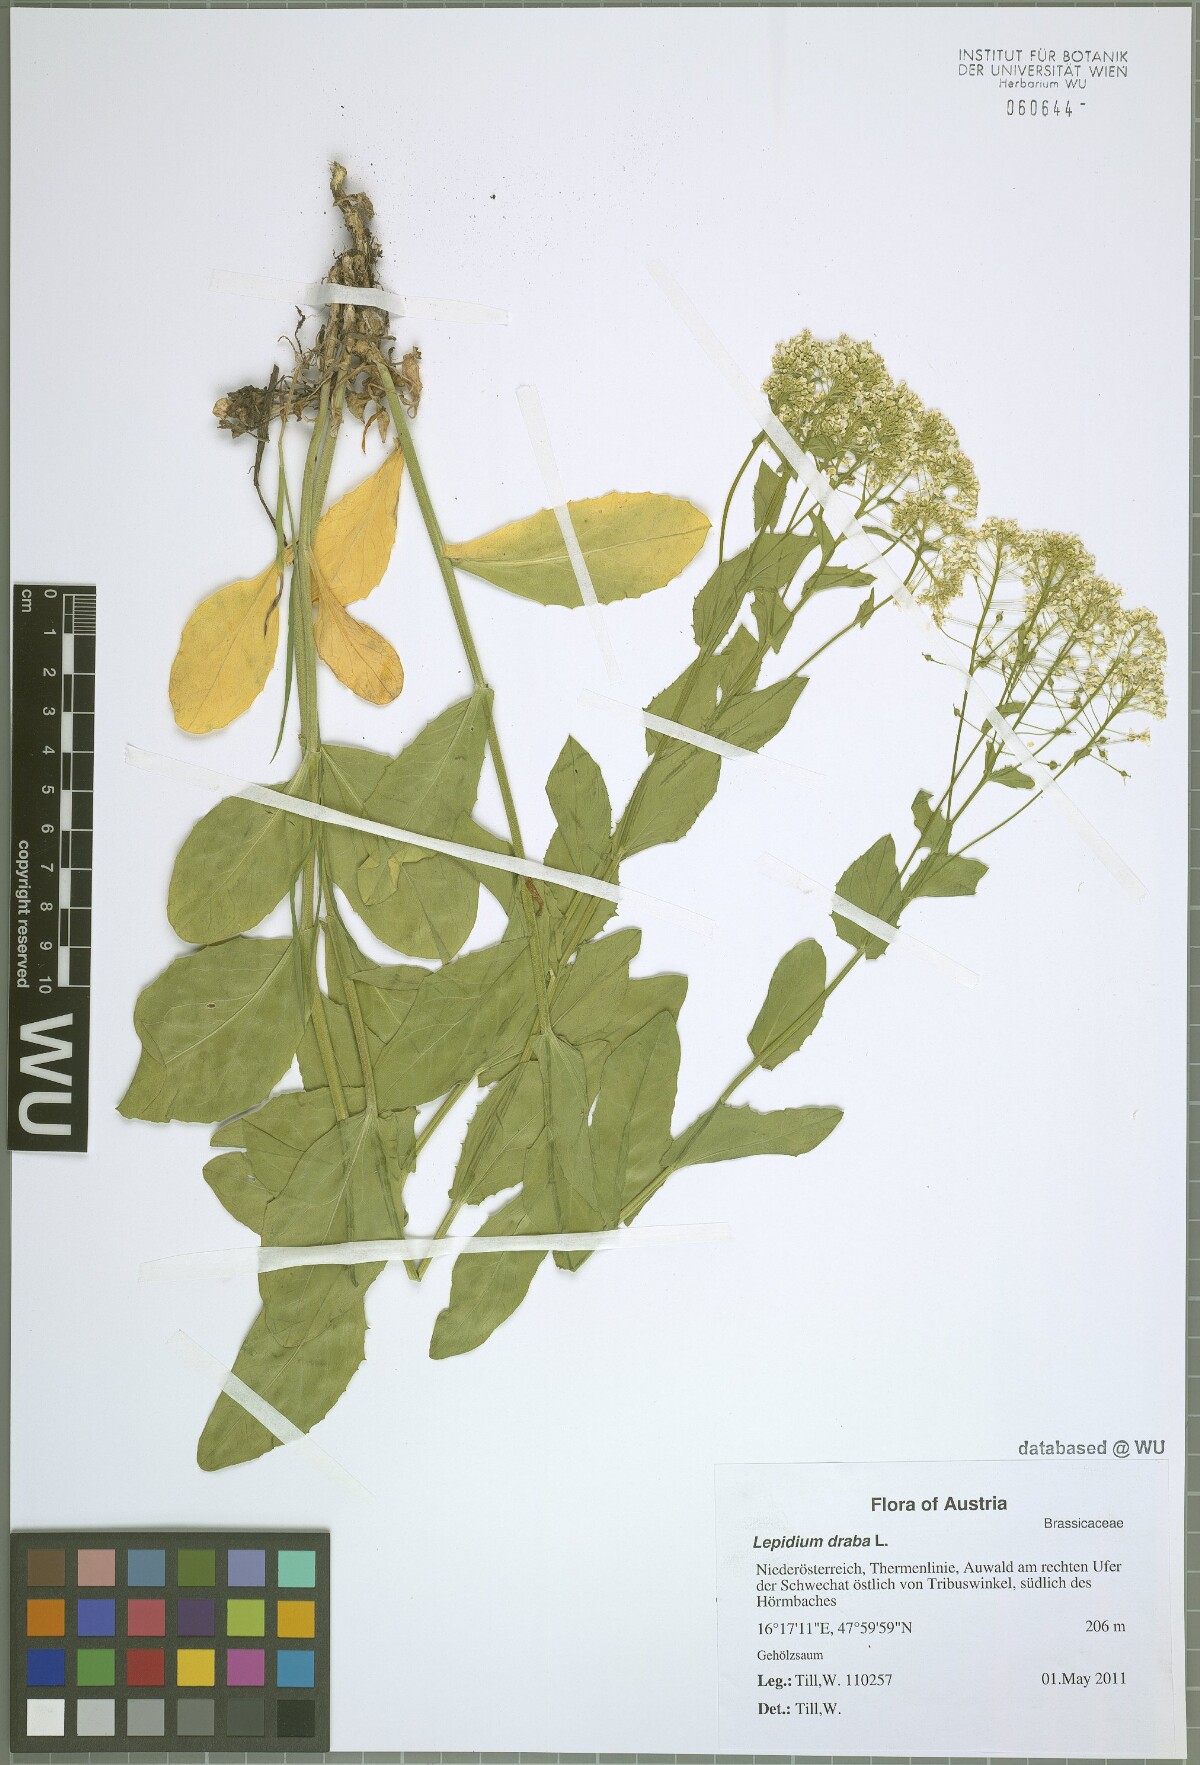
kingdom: Plantae
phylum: Tracheophyta
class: Magnoliopsida
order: Brassicales
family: Brassicaceae
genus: Lepidium
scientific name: Lepidium draba
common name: Hoary cress
